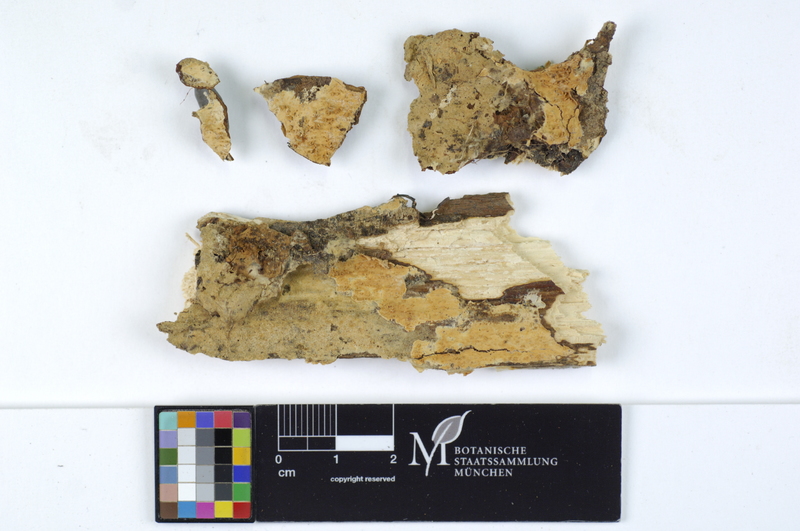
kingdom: Plantae
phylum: Tracheophyta
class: Magnoliopsida
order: Fagales
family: Fagaceae
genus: Fagus
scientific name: Fagus sylvatica
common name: Beech
